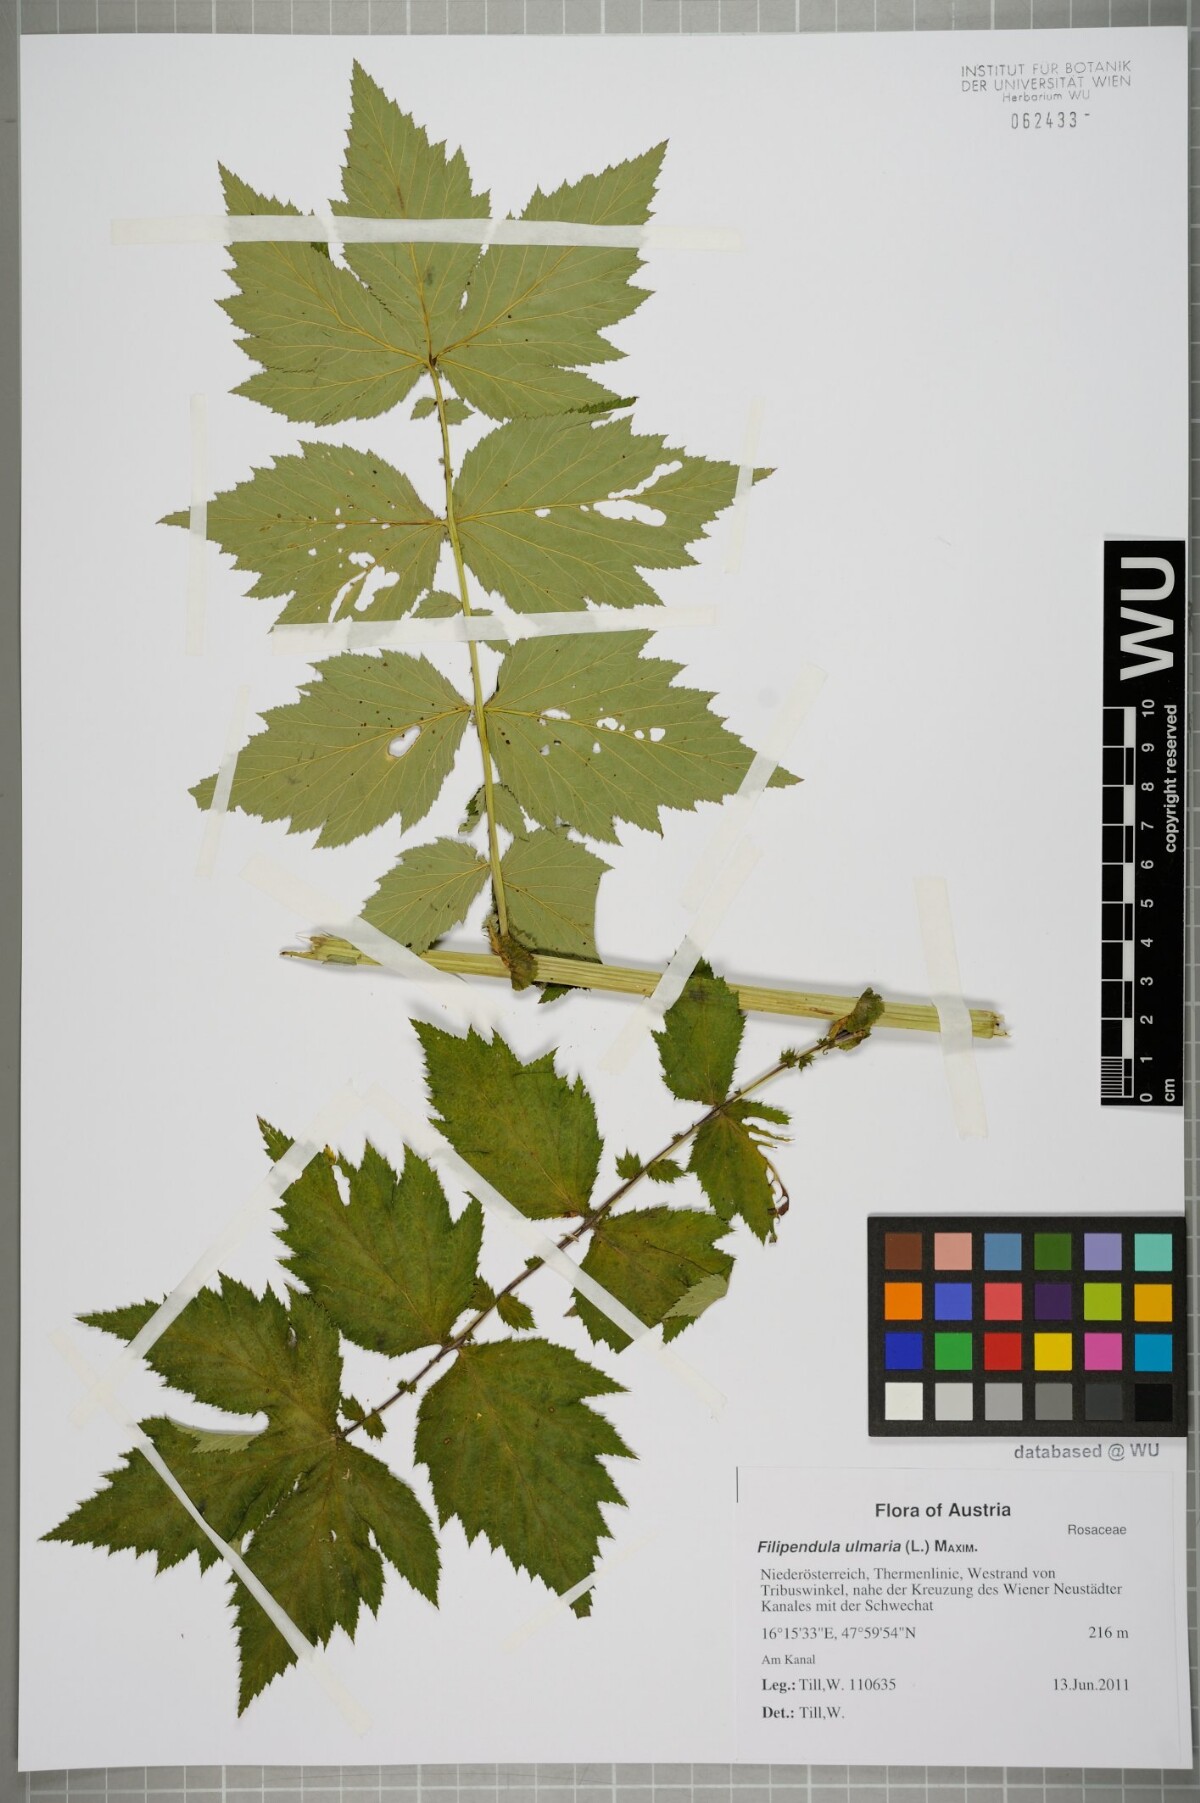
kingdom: Plantae
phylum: Tracheophyta
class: Magnoliopsida
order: Rosales
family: Rosaceae
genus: Filipendula
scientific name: Filipendula ulmaria
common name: Meadowsweet
